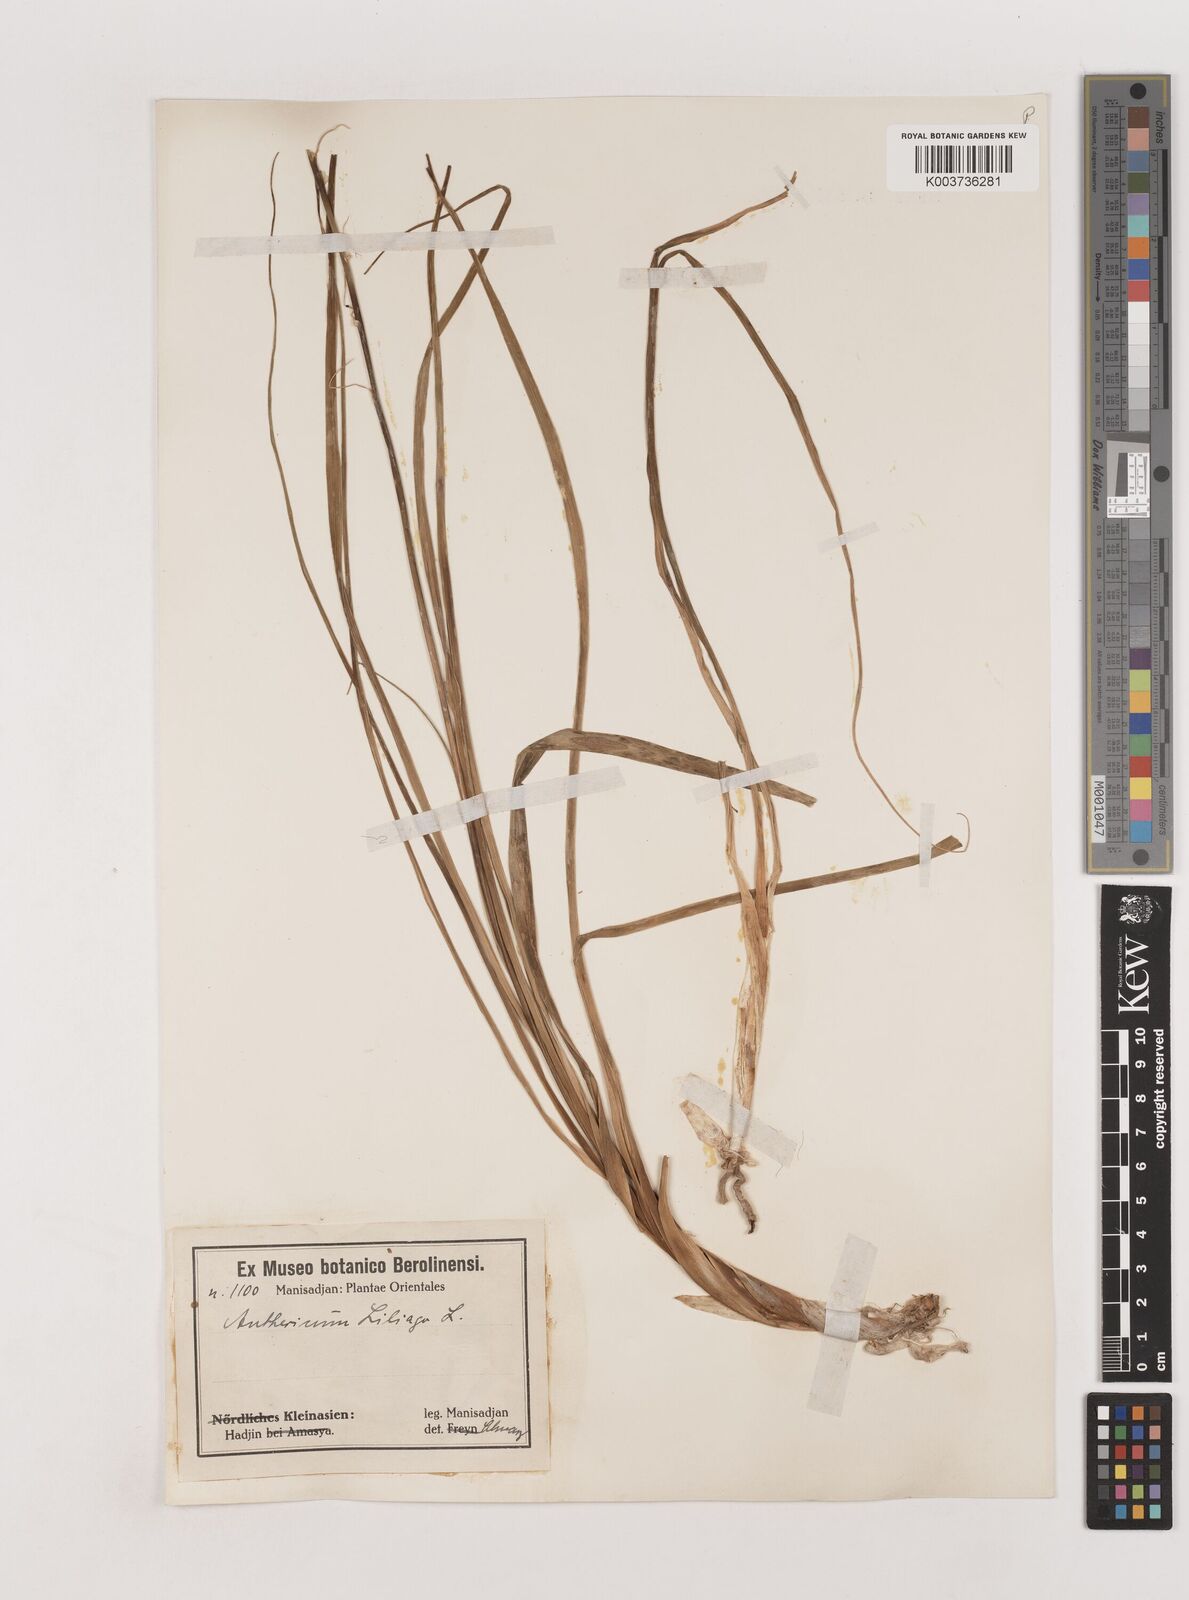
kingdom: Plantae
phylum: Tracheophyta
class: Liliopsida
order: Asparagales
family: Asparagaceae
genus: Anthericum
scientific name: Anthericum liliago
